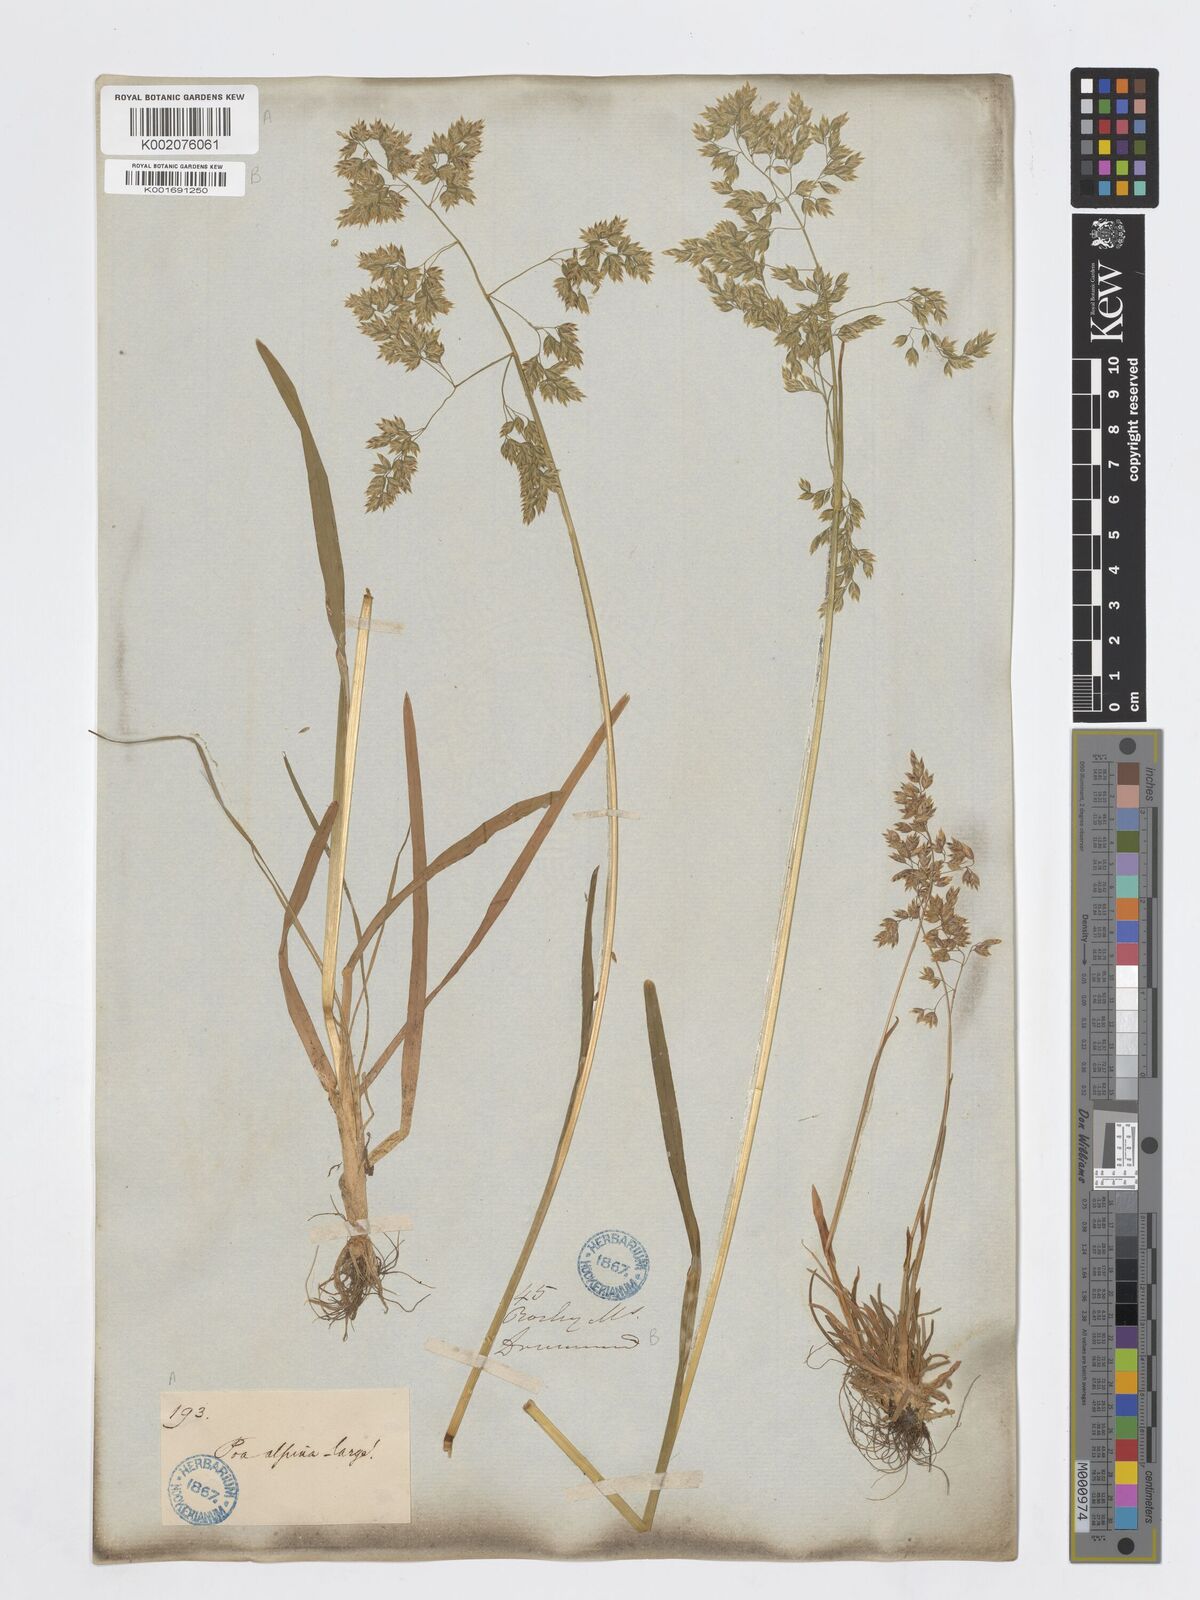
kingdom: Plantae
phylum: Tracheophyta
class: Liliopsida
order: Poales
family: Poaceae
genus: Poa
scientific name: Poa alpina
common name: Alpine bluegrass
